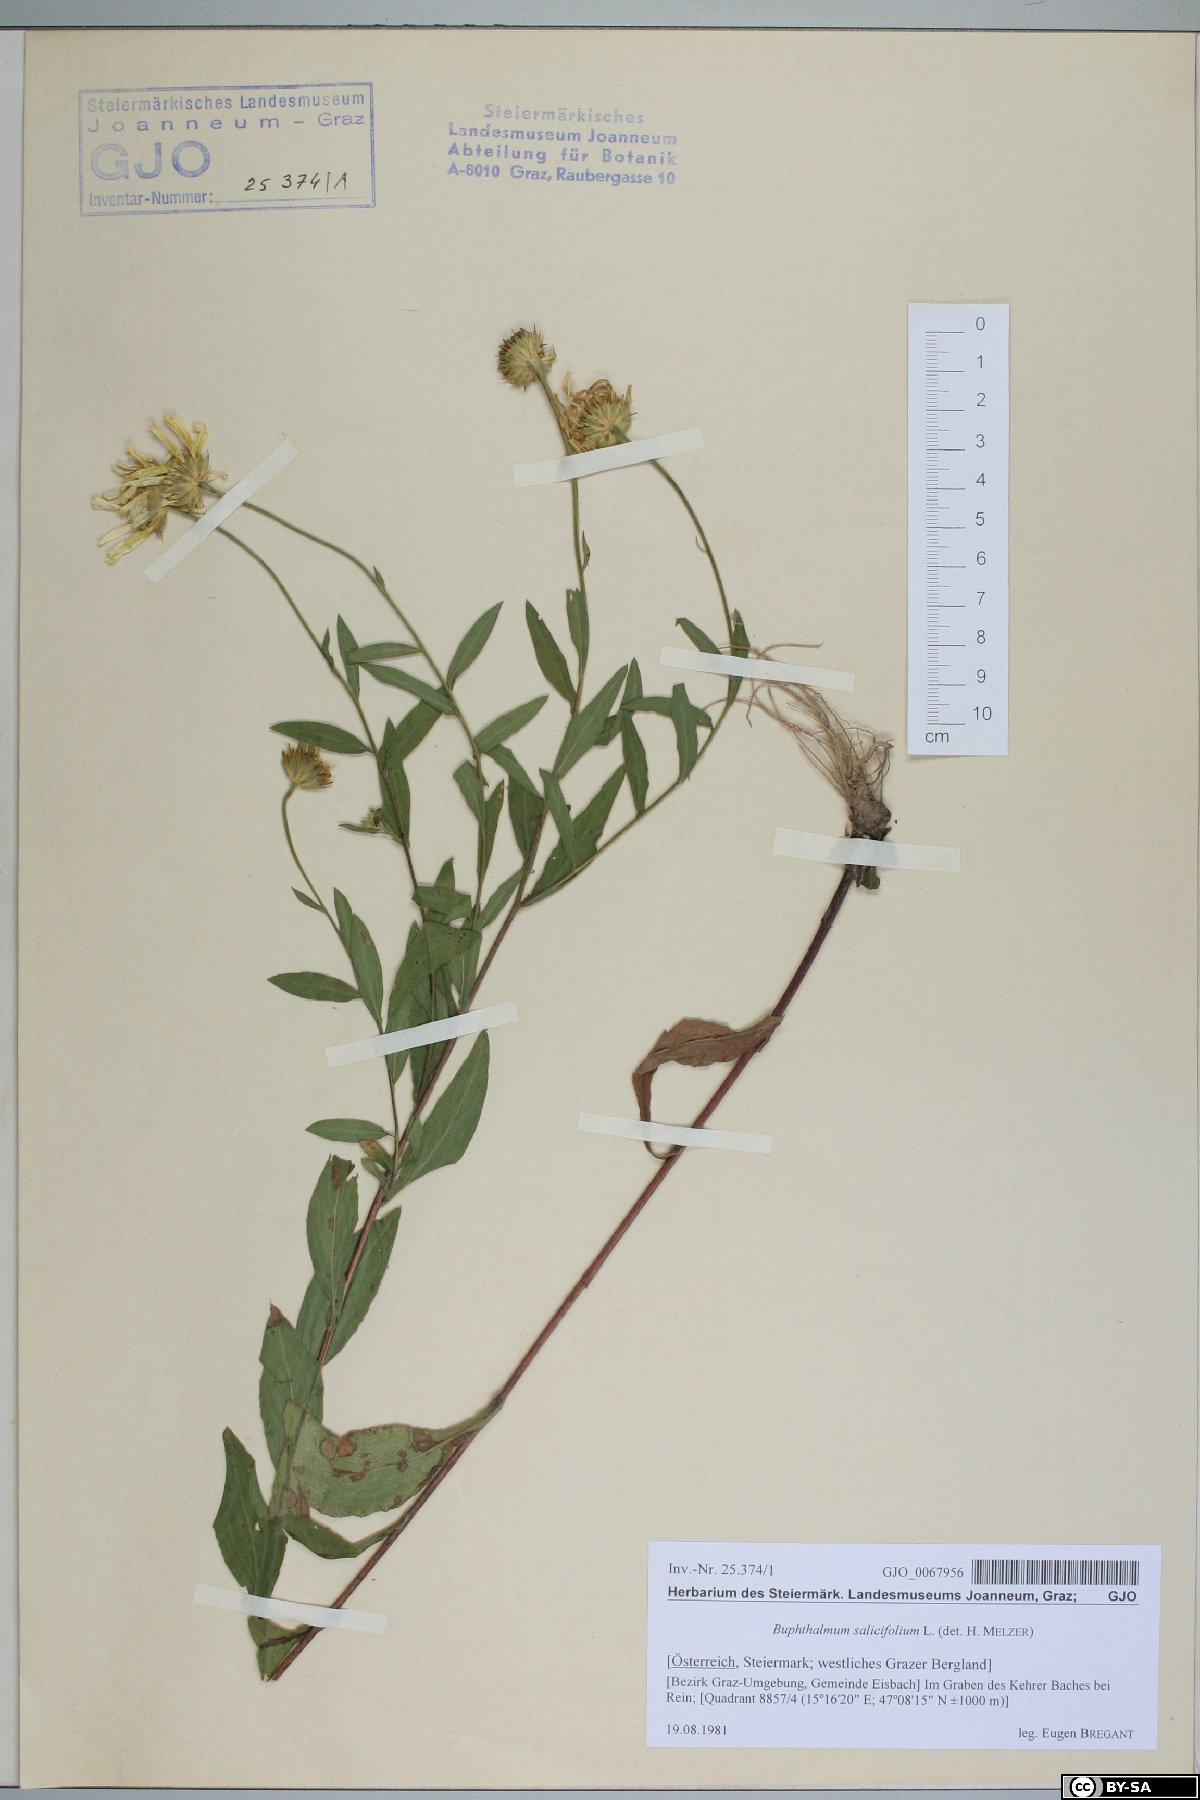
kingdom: Plantae
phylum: Tracheophyta
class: Magnoliopsida
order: Asterales
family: Asteraceae
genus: Buphthalmum
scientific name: Buphthalmum salicifolium
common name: Willow-leaved yellow-oxeye
